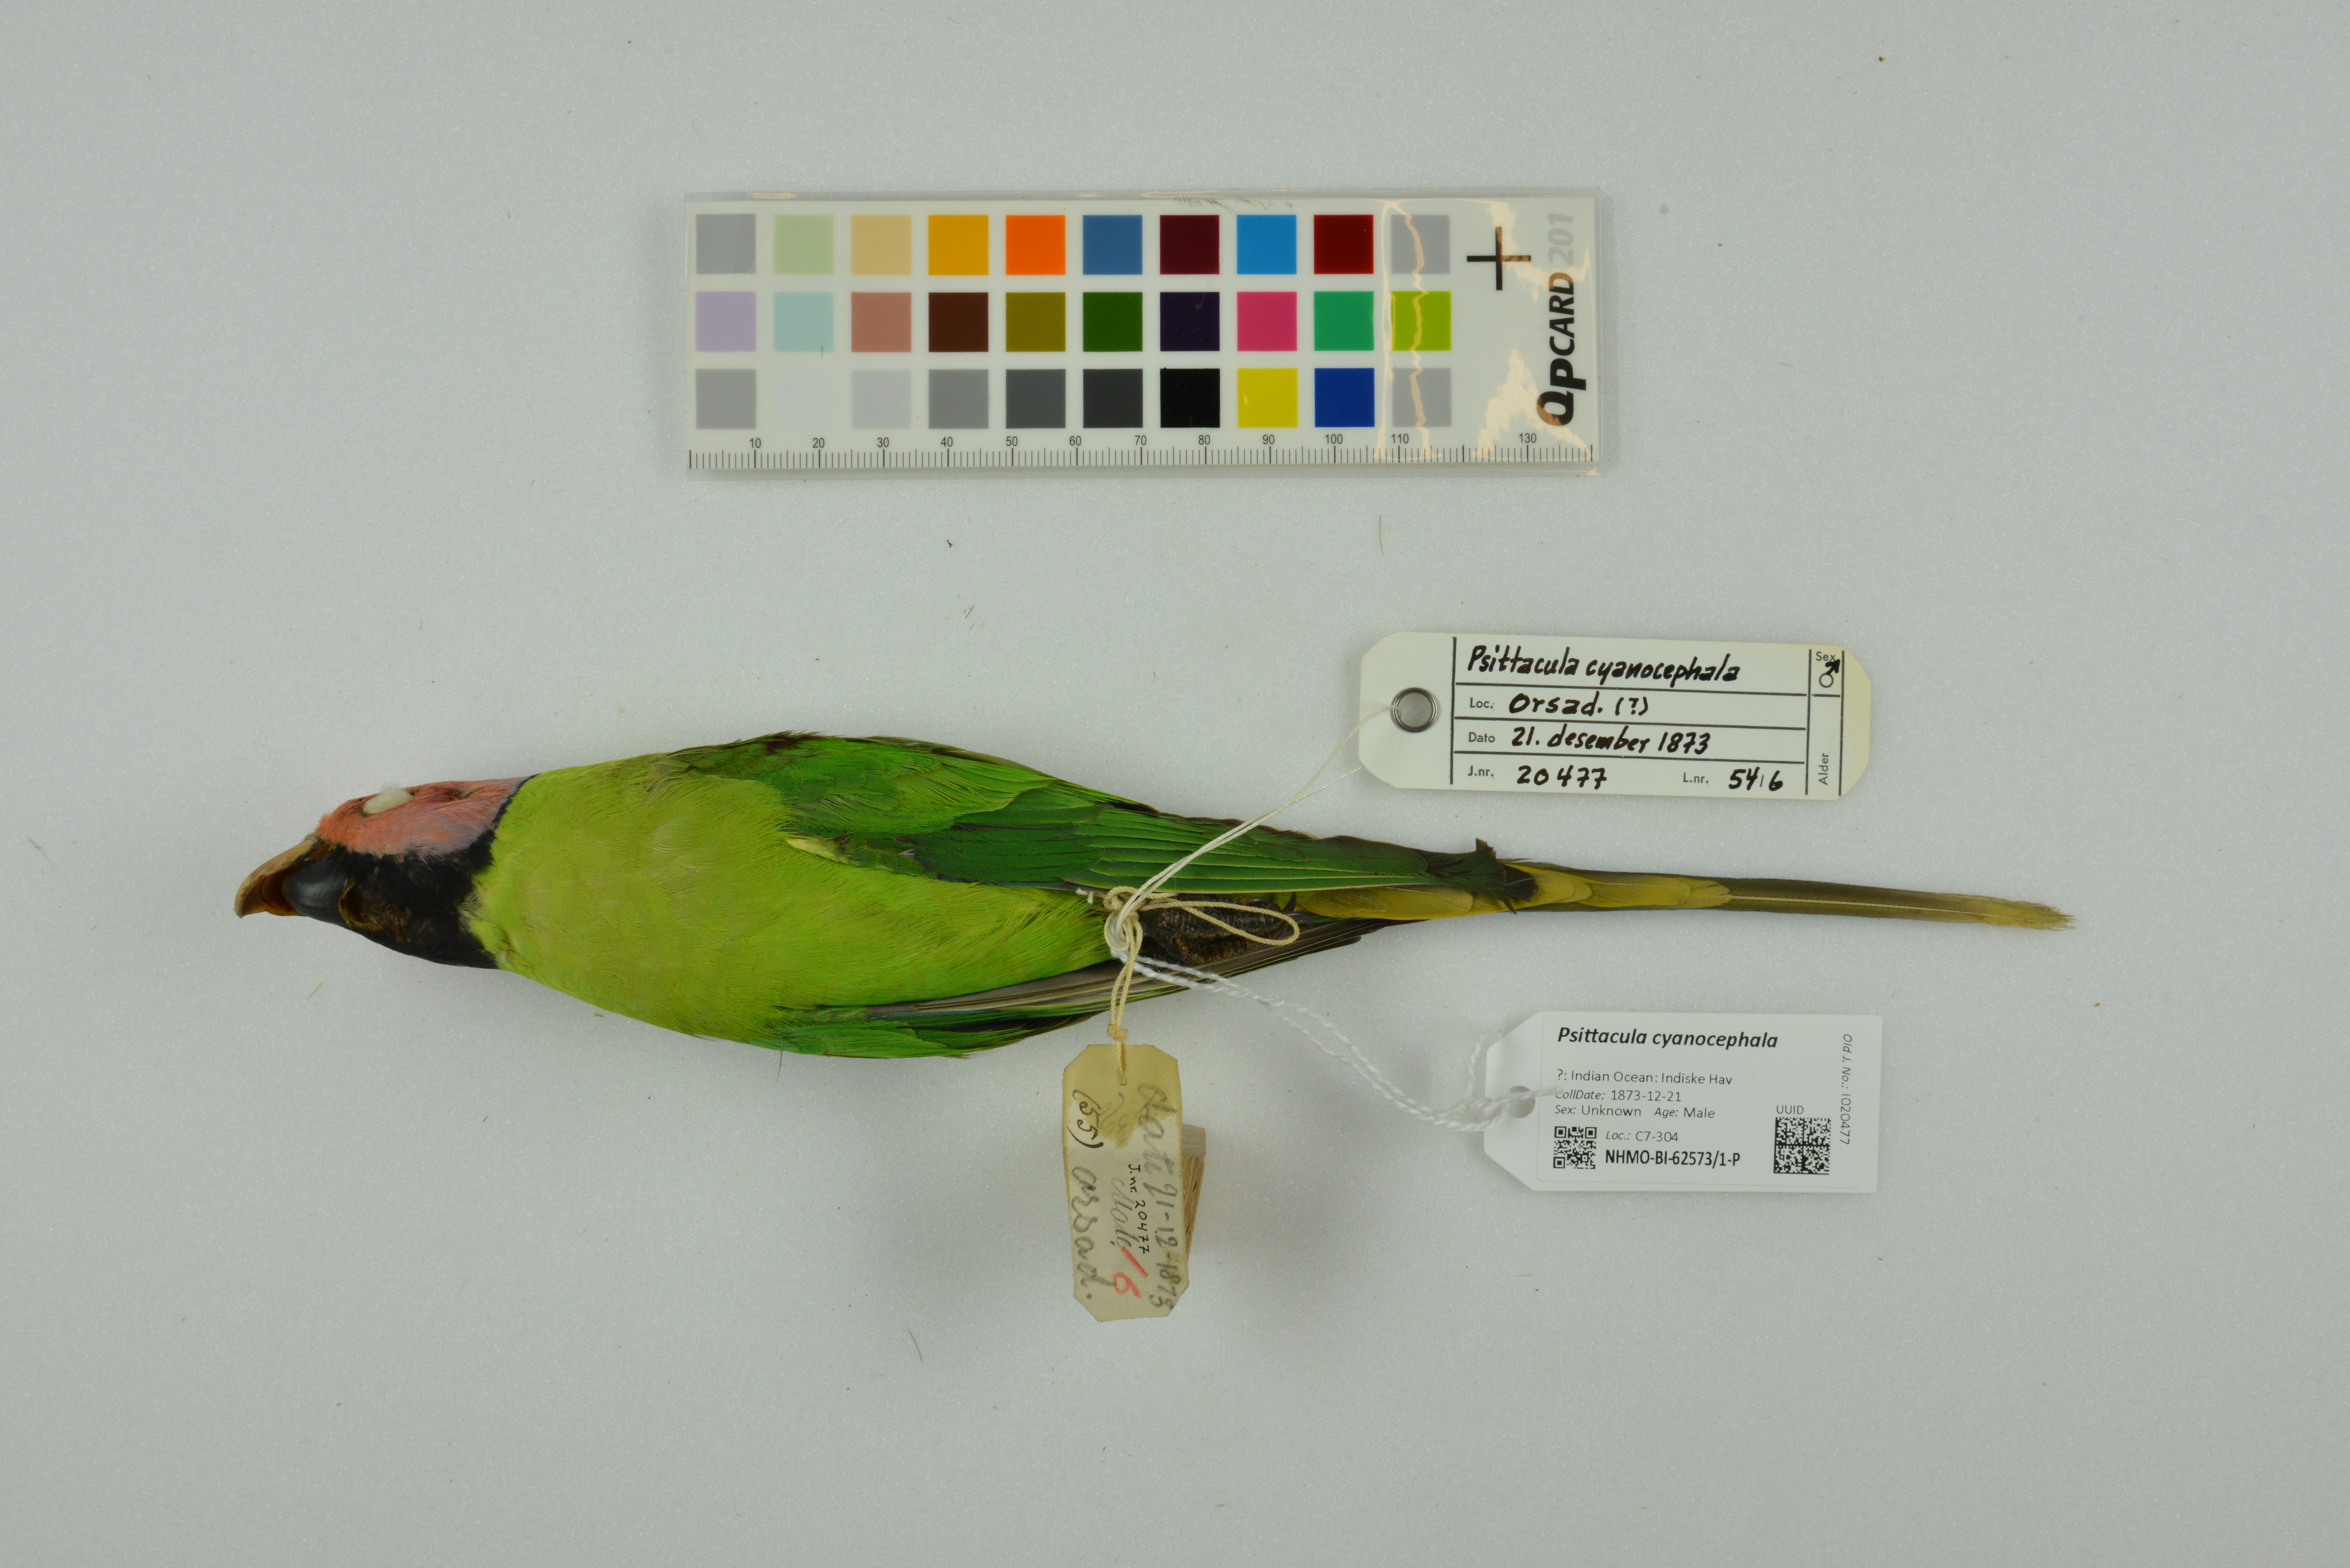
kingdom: Animalia
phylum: Chordata
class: Aves
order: Psittaciformes
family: Psittacidae
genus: Psittacula
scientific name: Psittacula cyanocephala
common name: Plum-headed parakeet
